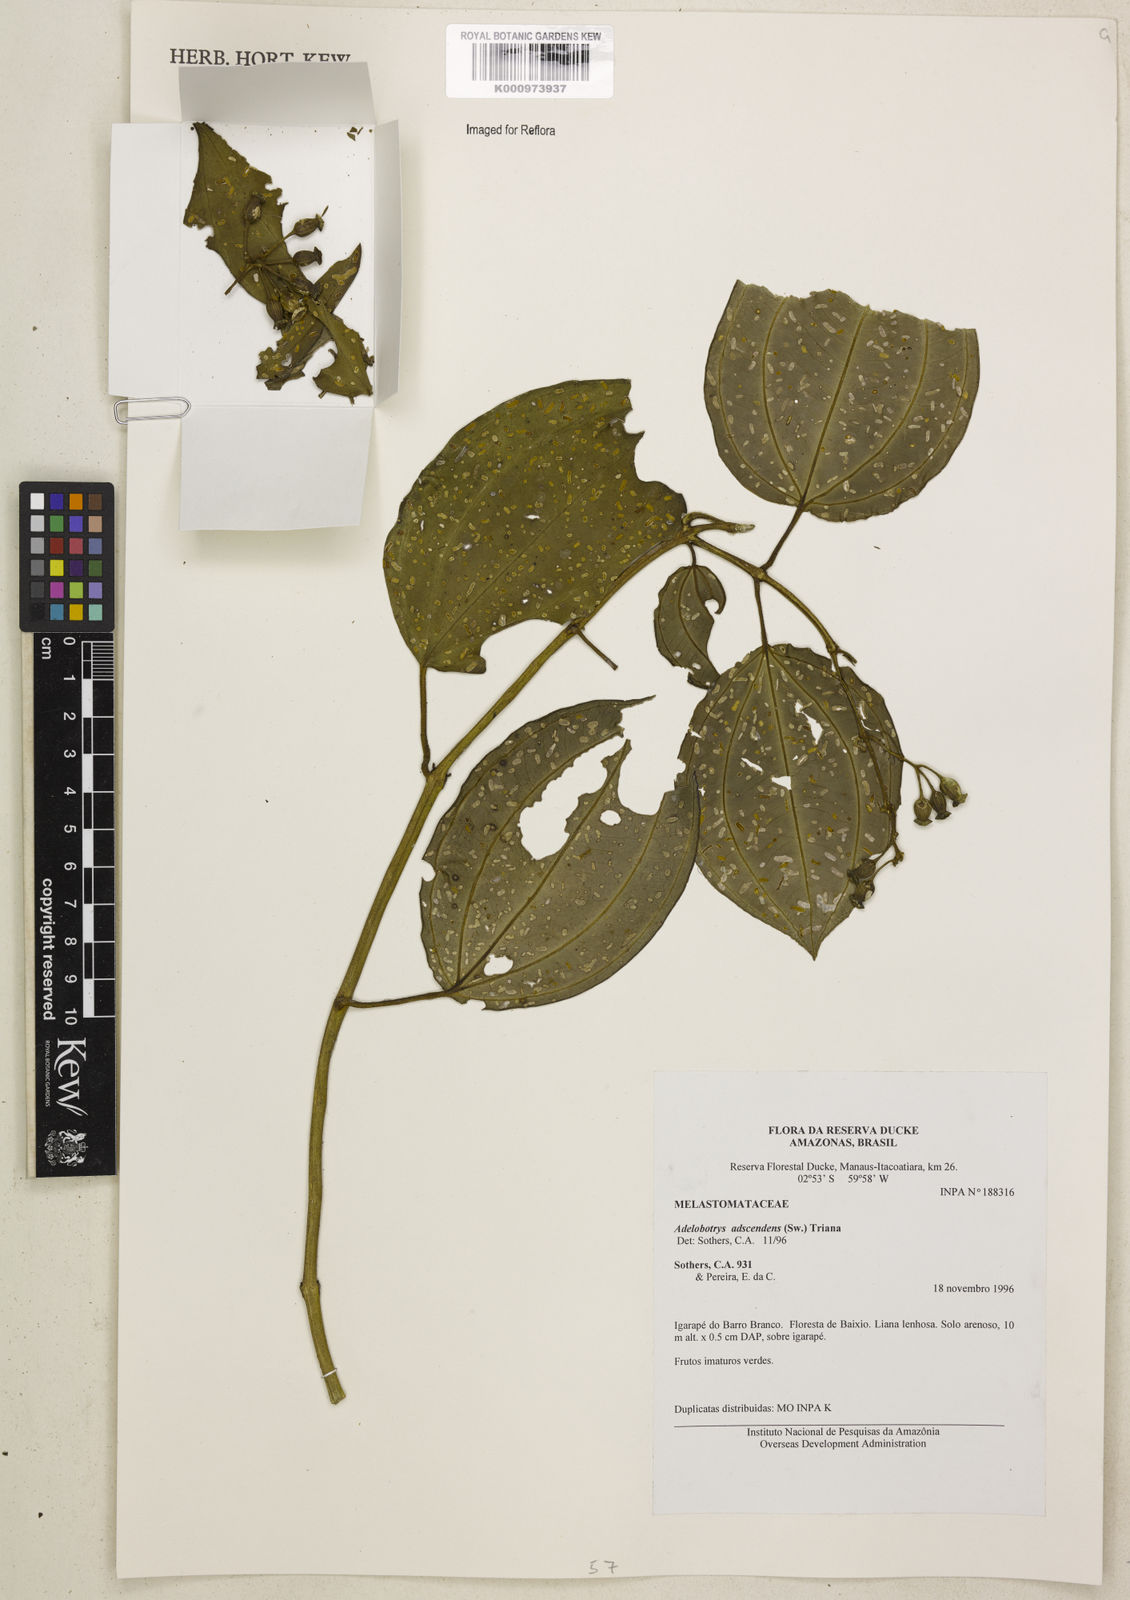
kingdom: Plantae
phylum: Tracheophyta
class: Magnoliopsida
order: Myrtales
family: Melastomataceae
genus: Adelobotrys
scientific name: Adelobotrys adscendens
